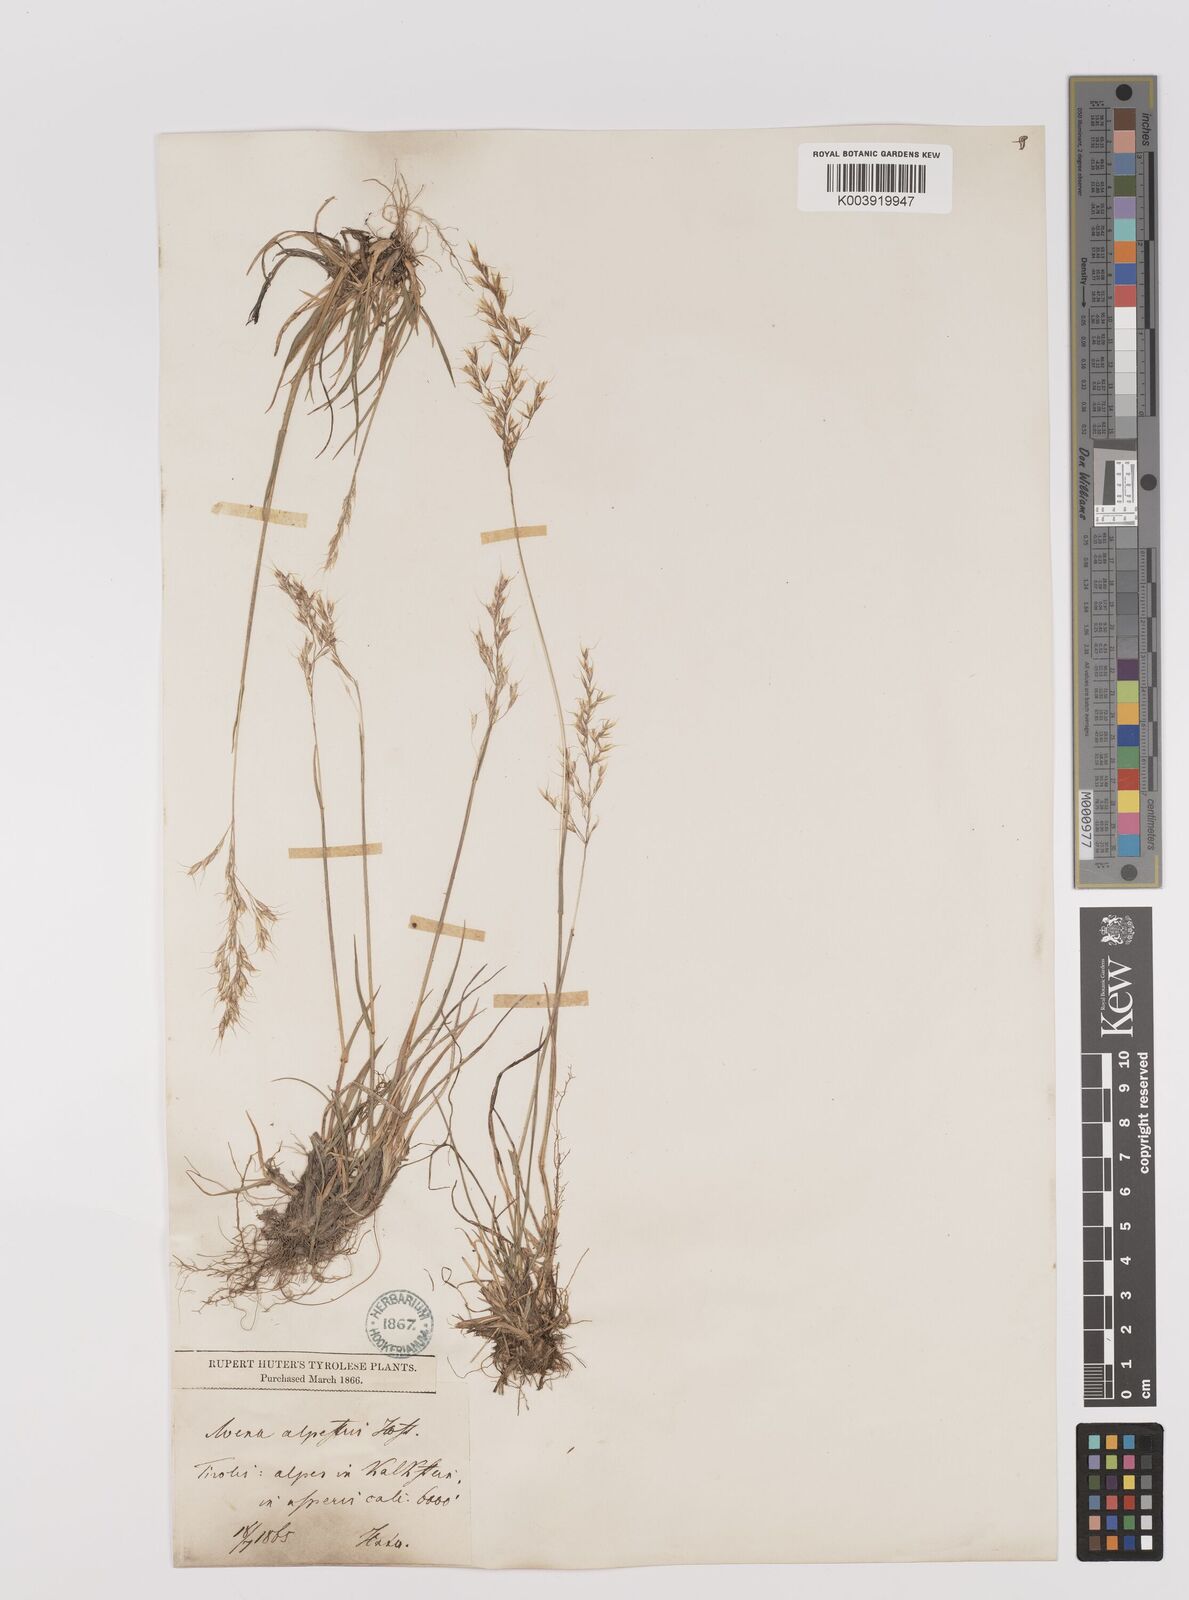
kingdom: Plantae
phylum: Tracheophyta
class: Liliopsida
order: Poales
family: Poaceae
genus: Trisetum
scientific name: Trisetum alpestre
